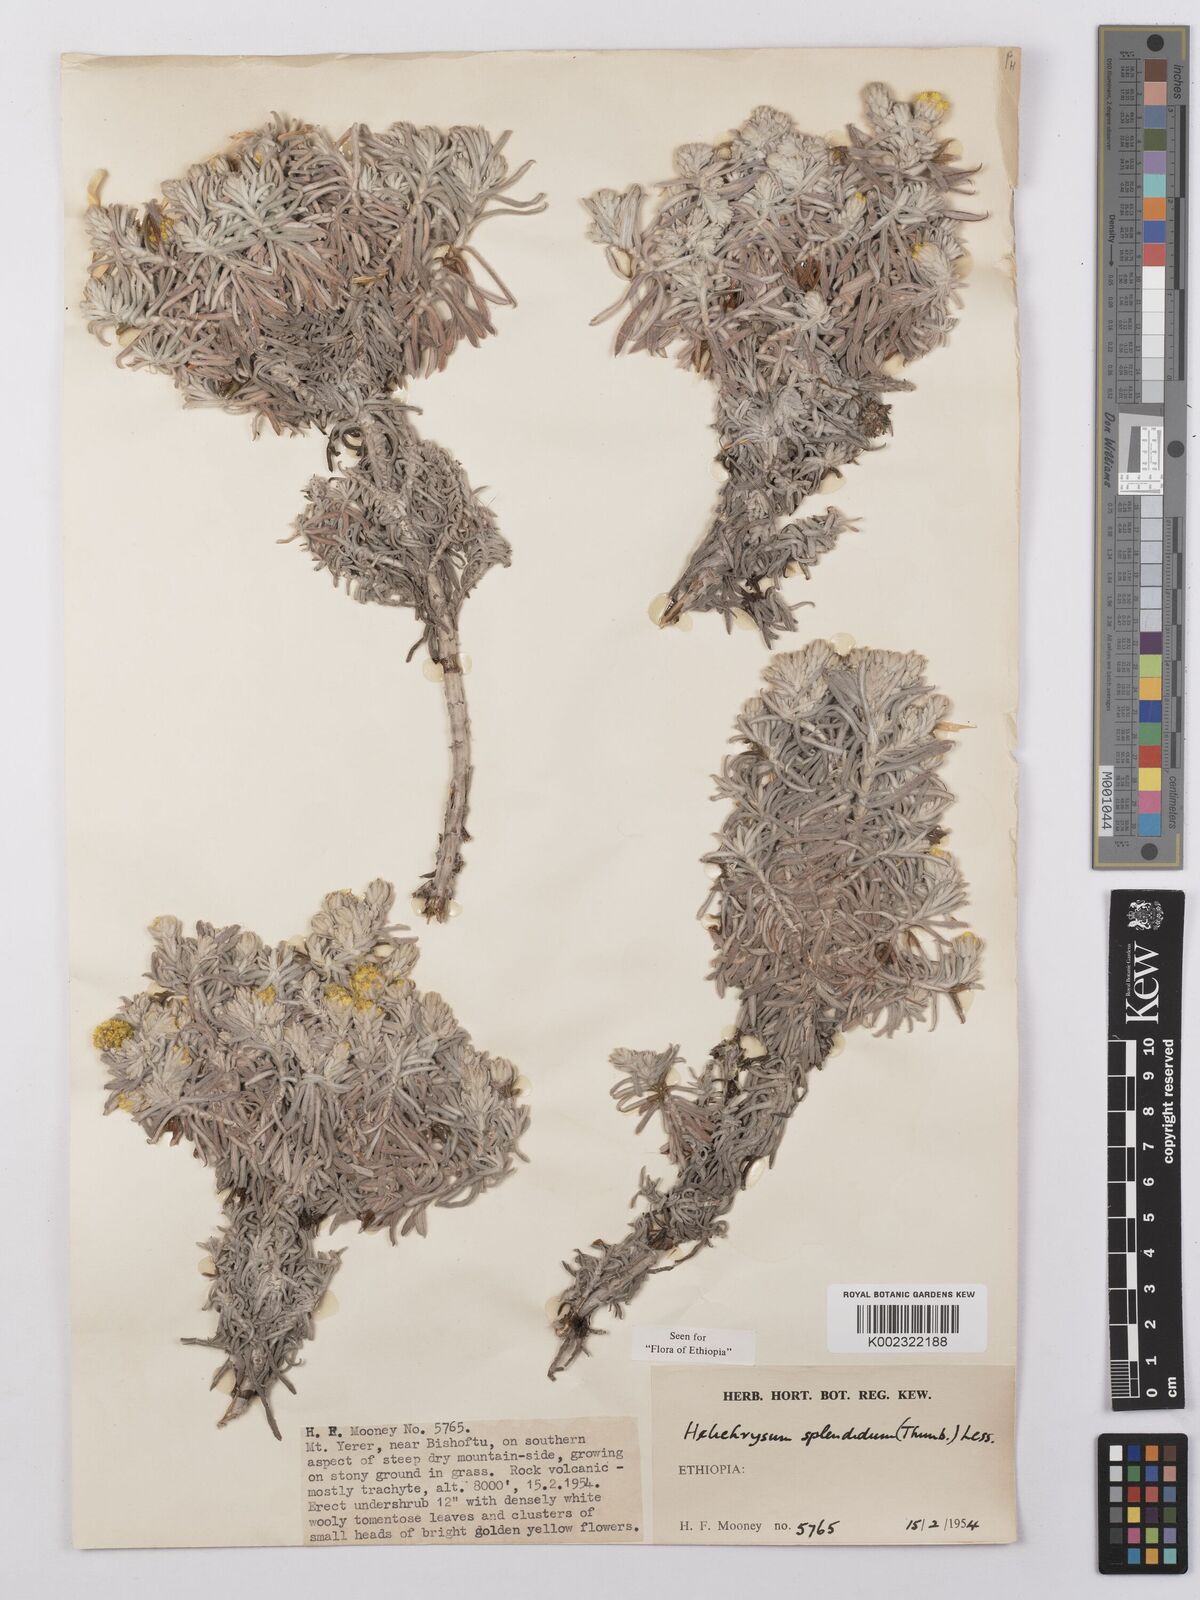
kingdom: Plantae
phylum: Tracheophyta
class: Magnoliopsida
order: Asterales
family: Asteraceae
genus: Helichrysum
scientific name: Helichrysum splendidum
